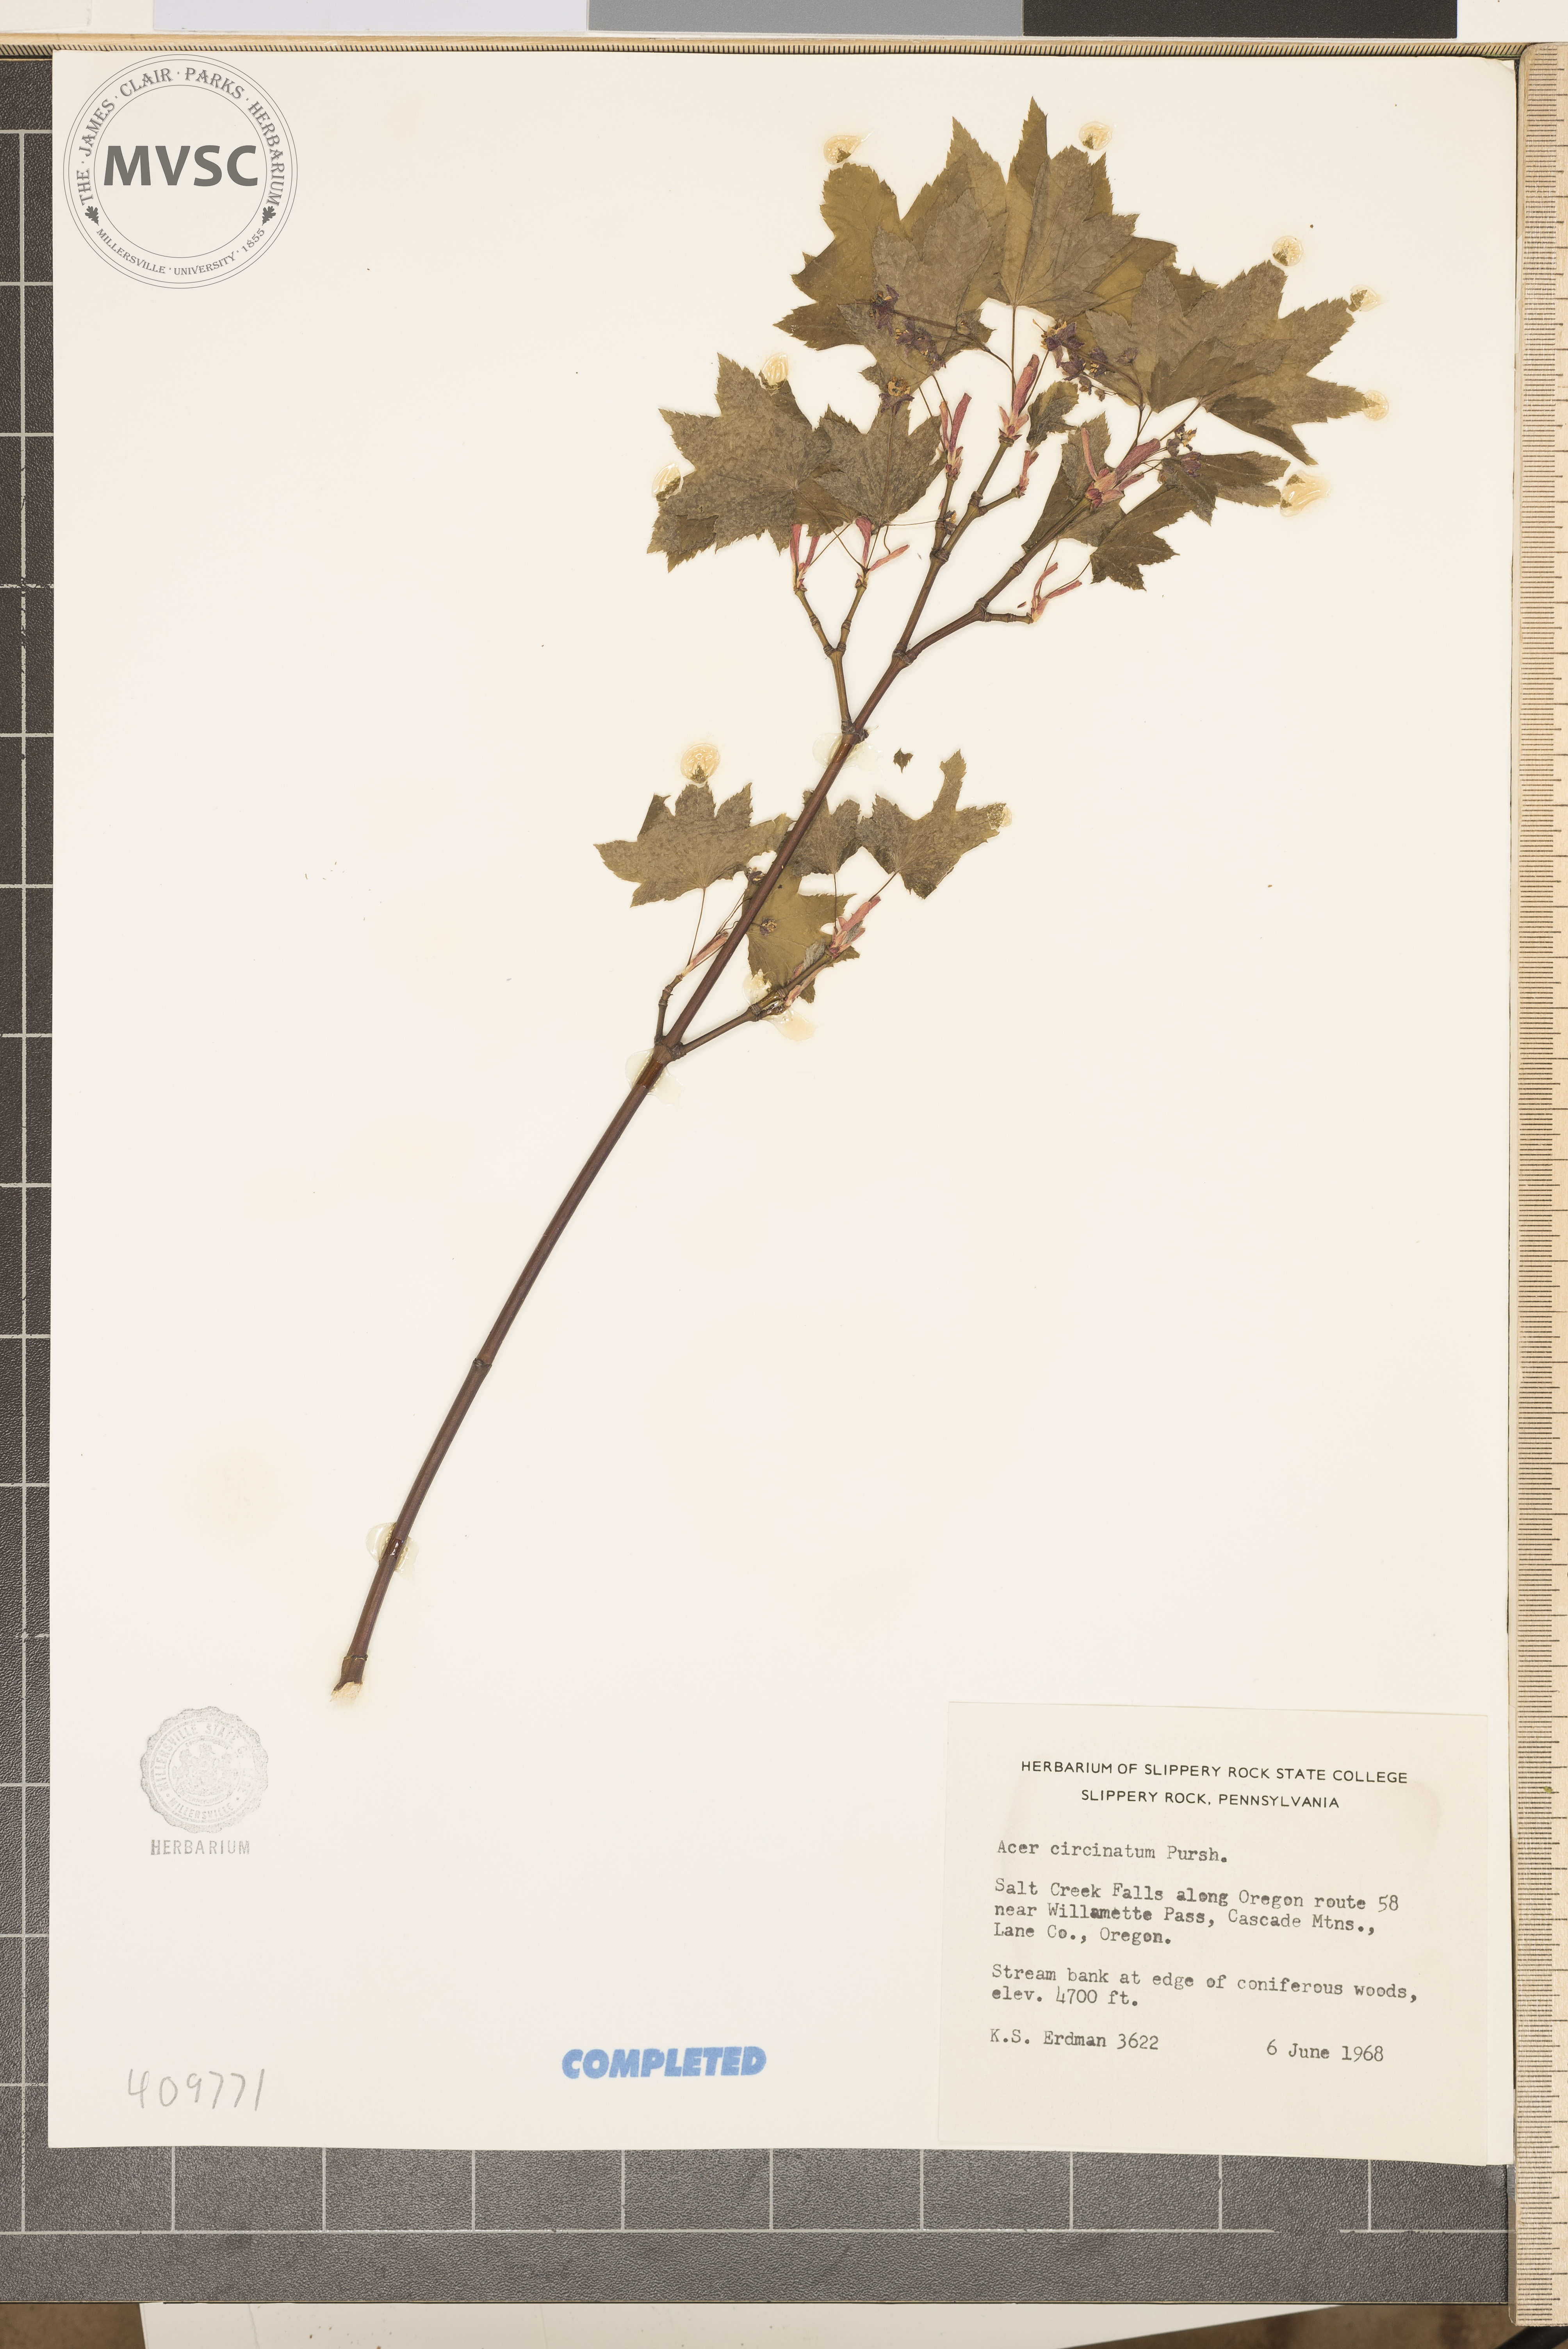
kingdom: Plantae
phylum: Tracheophyta
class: Magnoliopsida
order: Sapindales
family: Sapindaceae
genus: Acer
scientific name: Acer circinatum
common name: Vine maple
